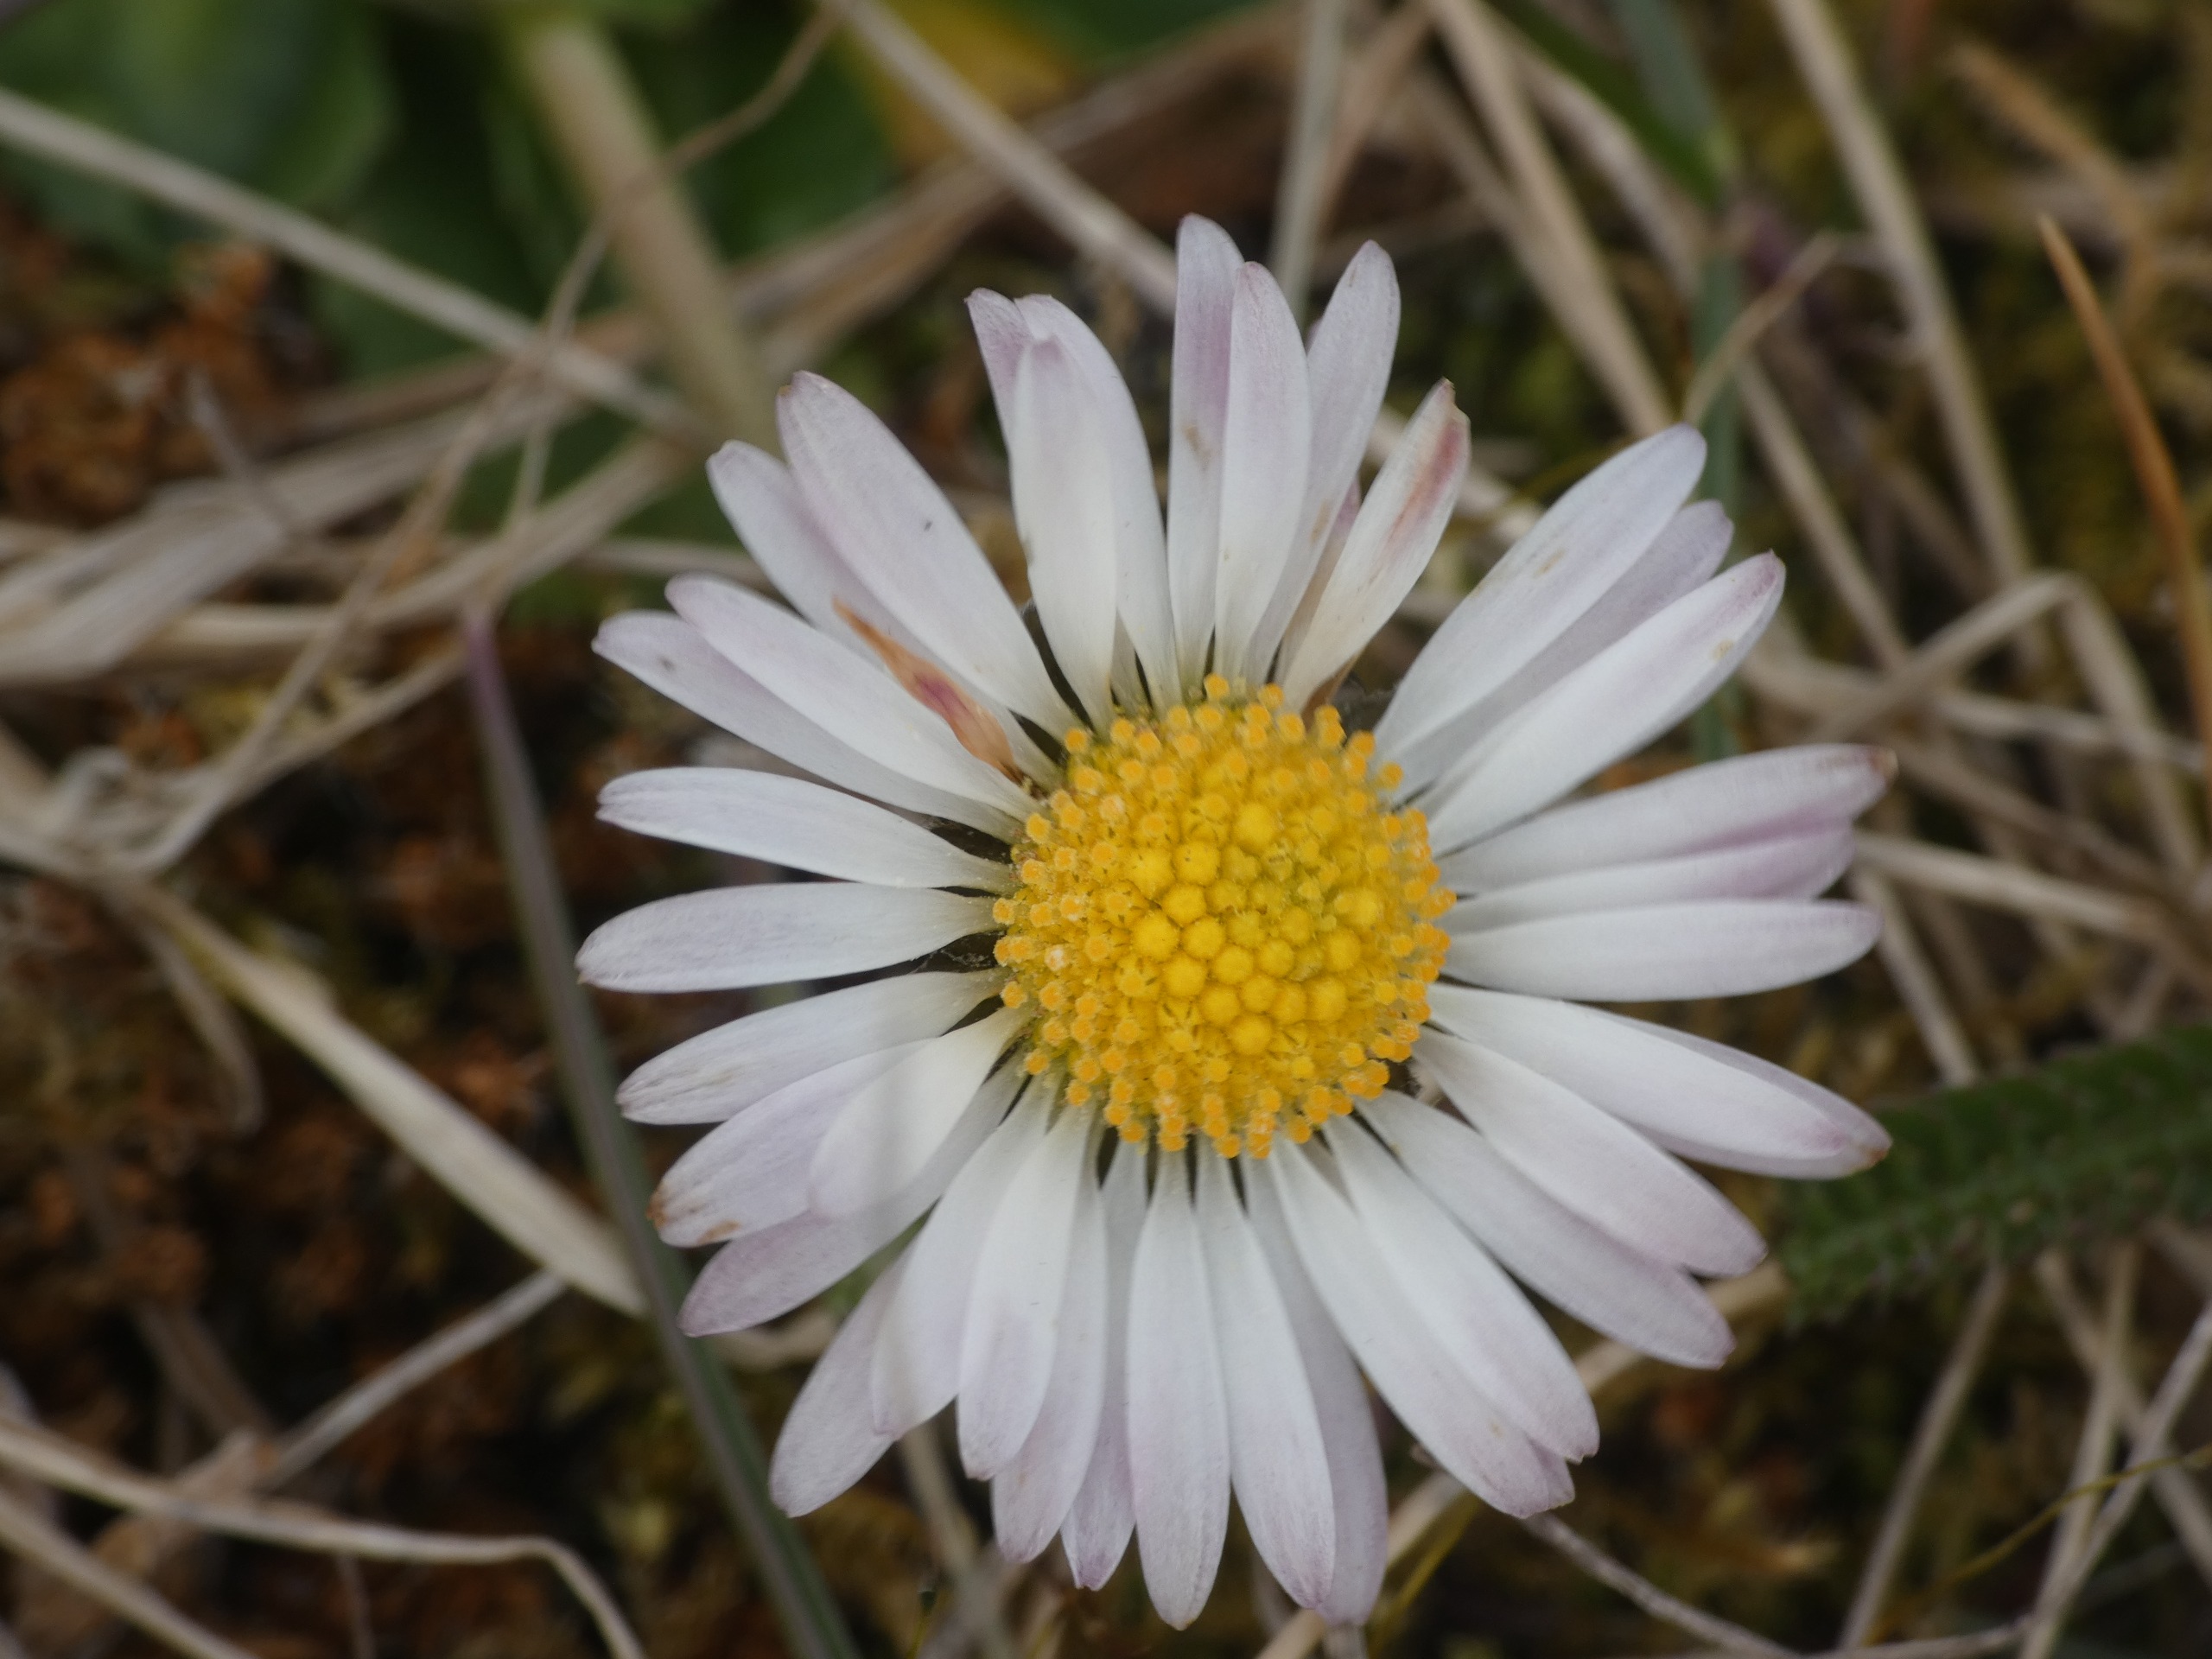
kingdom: Plantae
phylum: Tracheophyta
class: Magnoliopsida
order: Asterales
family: Asteraceae
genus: Bellis
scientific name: Bellis perennis
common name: Tusindfryd
